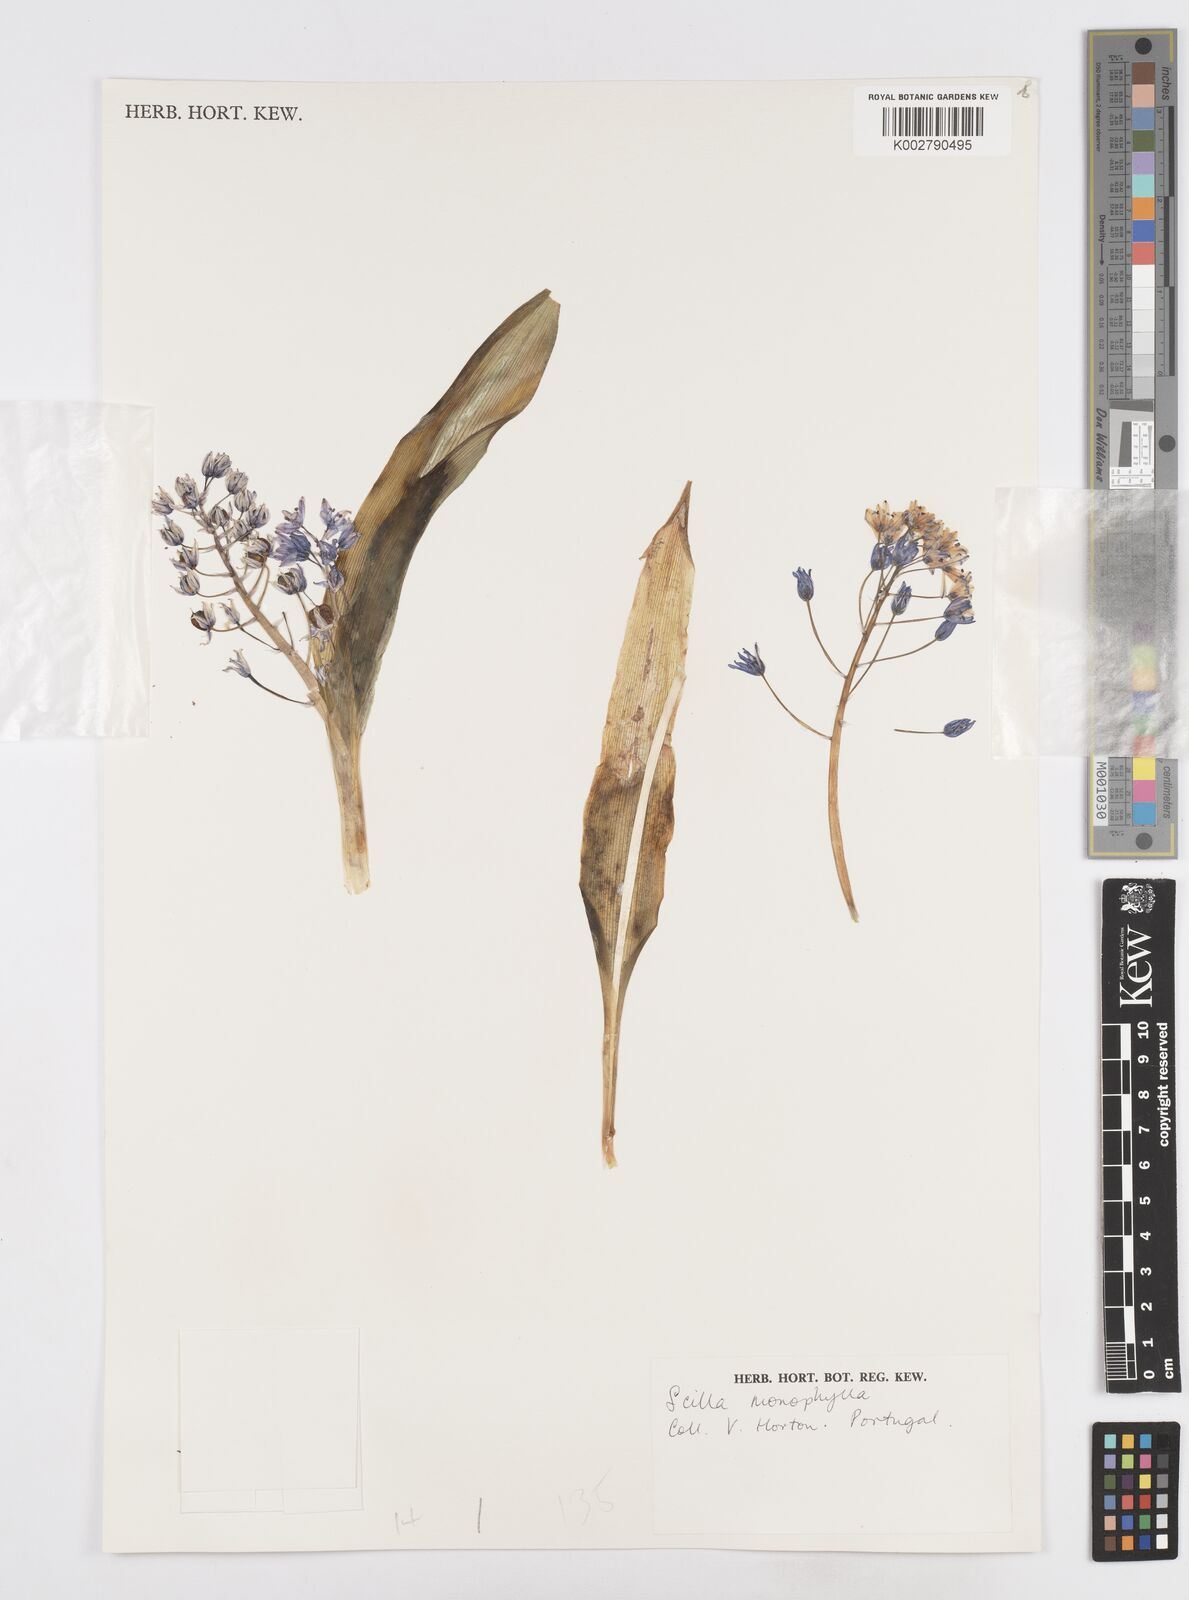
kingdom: Plantae
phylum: Tracheophyta
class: Liliopsida
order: Asparagales
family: Asparagaceae
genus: Scilla
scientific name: Scilla monophyllos
